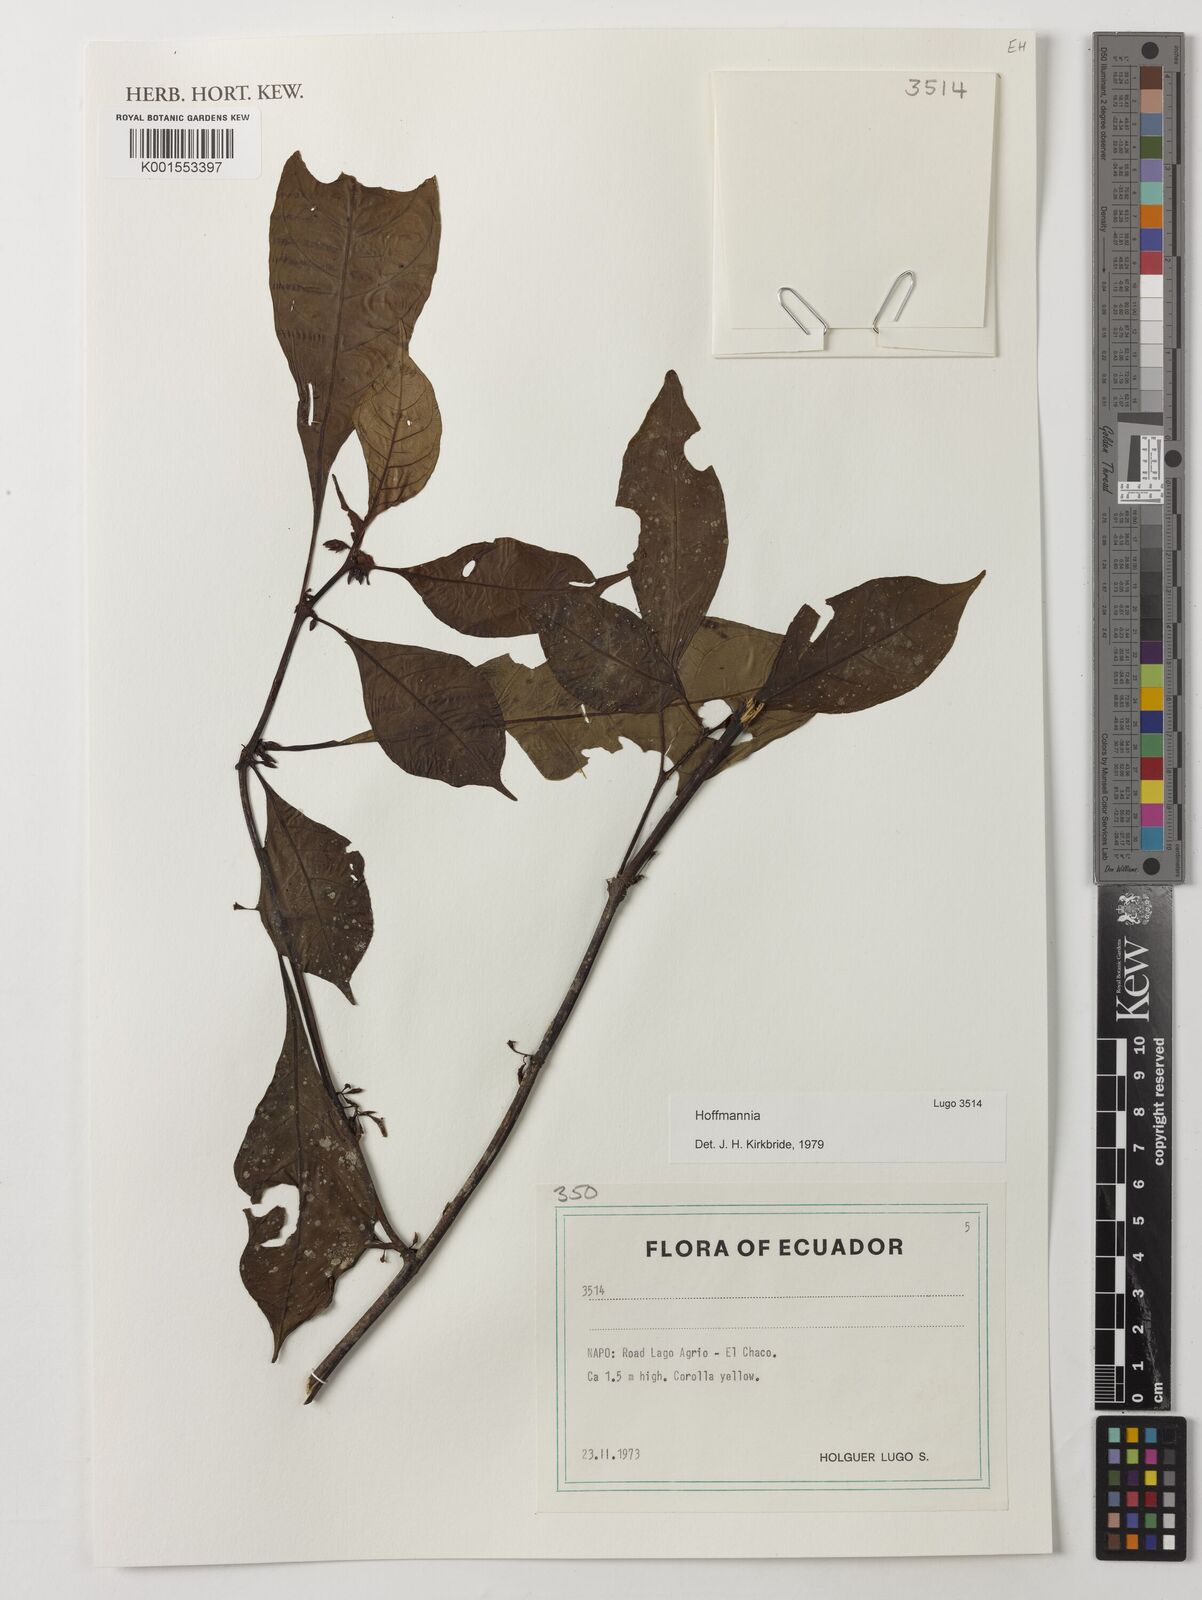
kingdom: Plantae
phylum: Tracheophyta
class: Magnoliopsida
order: Gentianales
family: Rubiaceae
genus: Hoffmannia
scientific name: Hoffmannia
